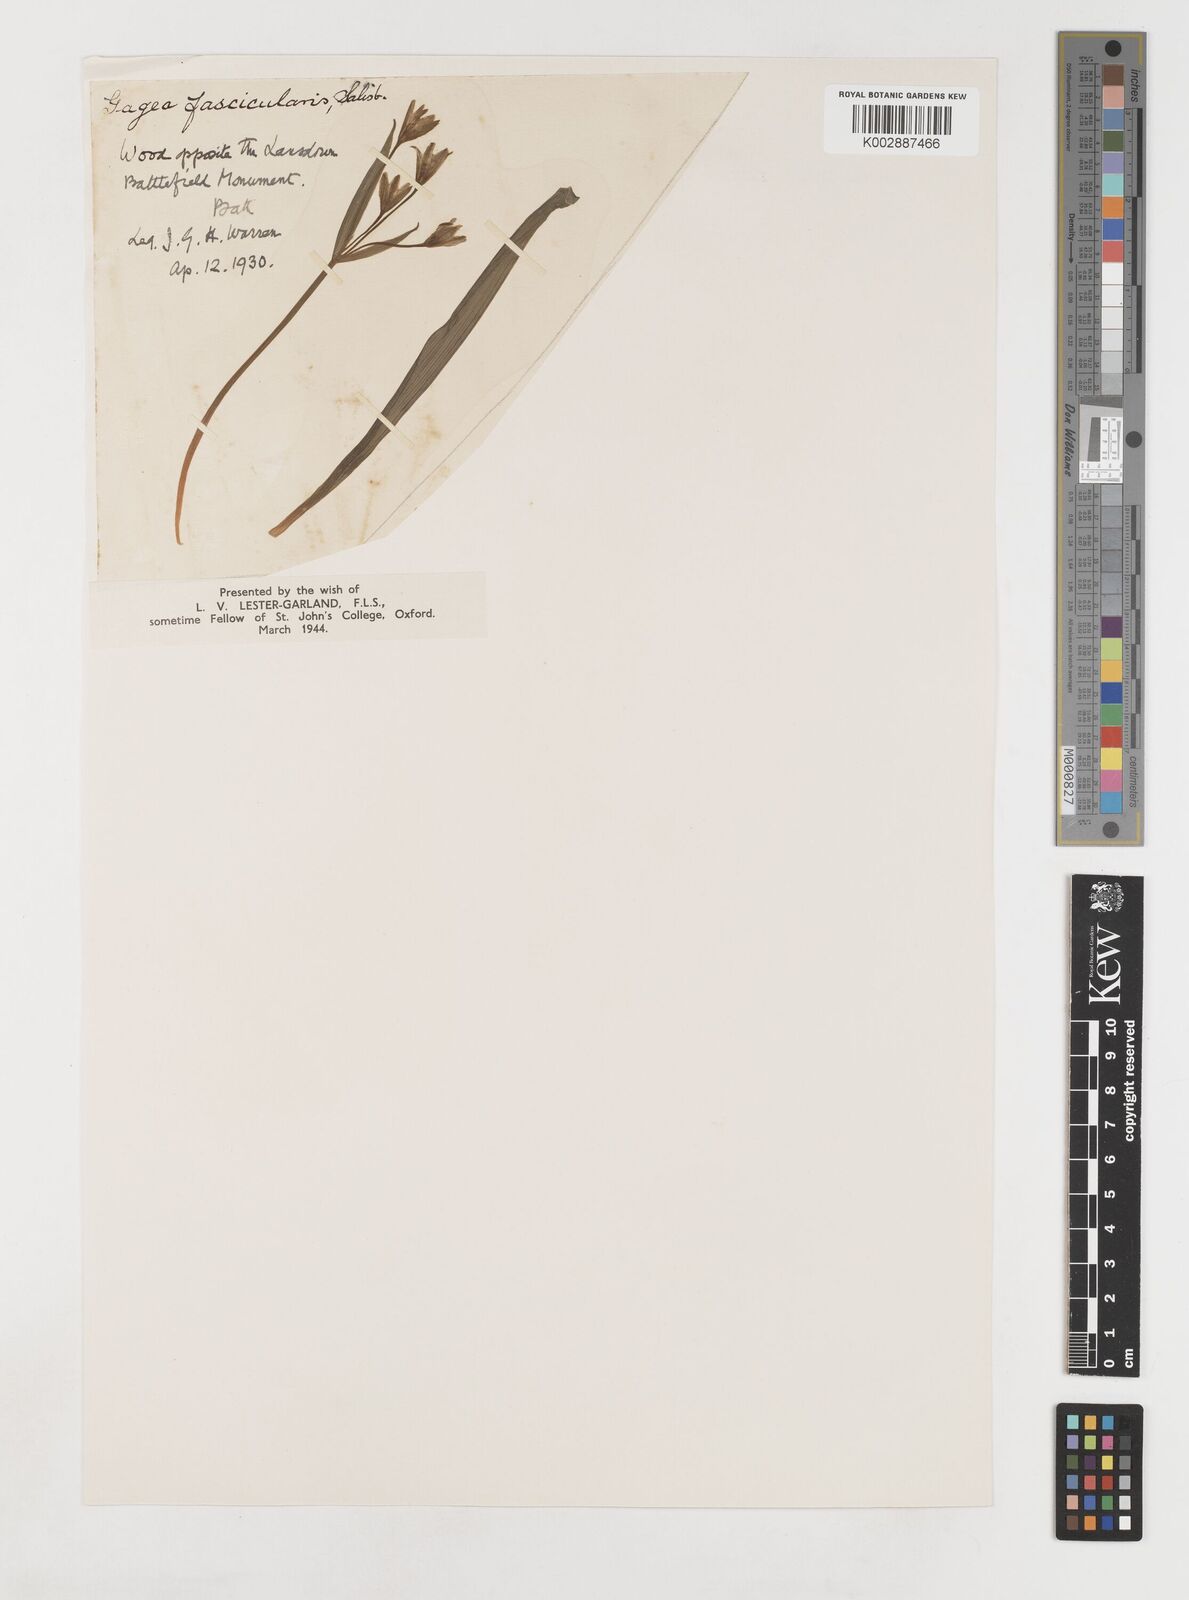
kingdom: Plantae
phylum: Tracheophyta
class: Liliopsida
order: Liliales
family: Liliaceae
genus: Gagea
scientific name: Gagea lutea
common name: Yellow star-of-bethlehem
